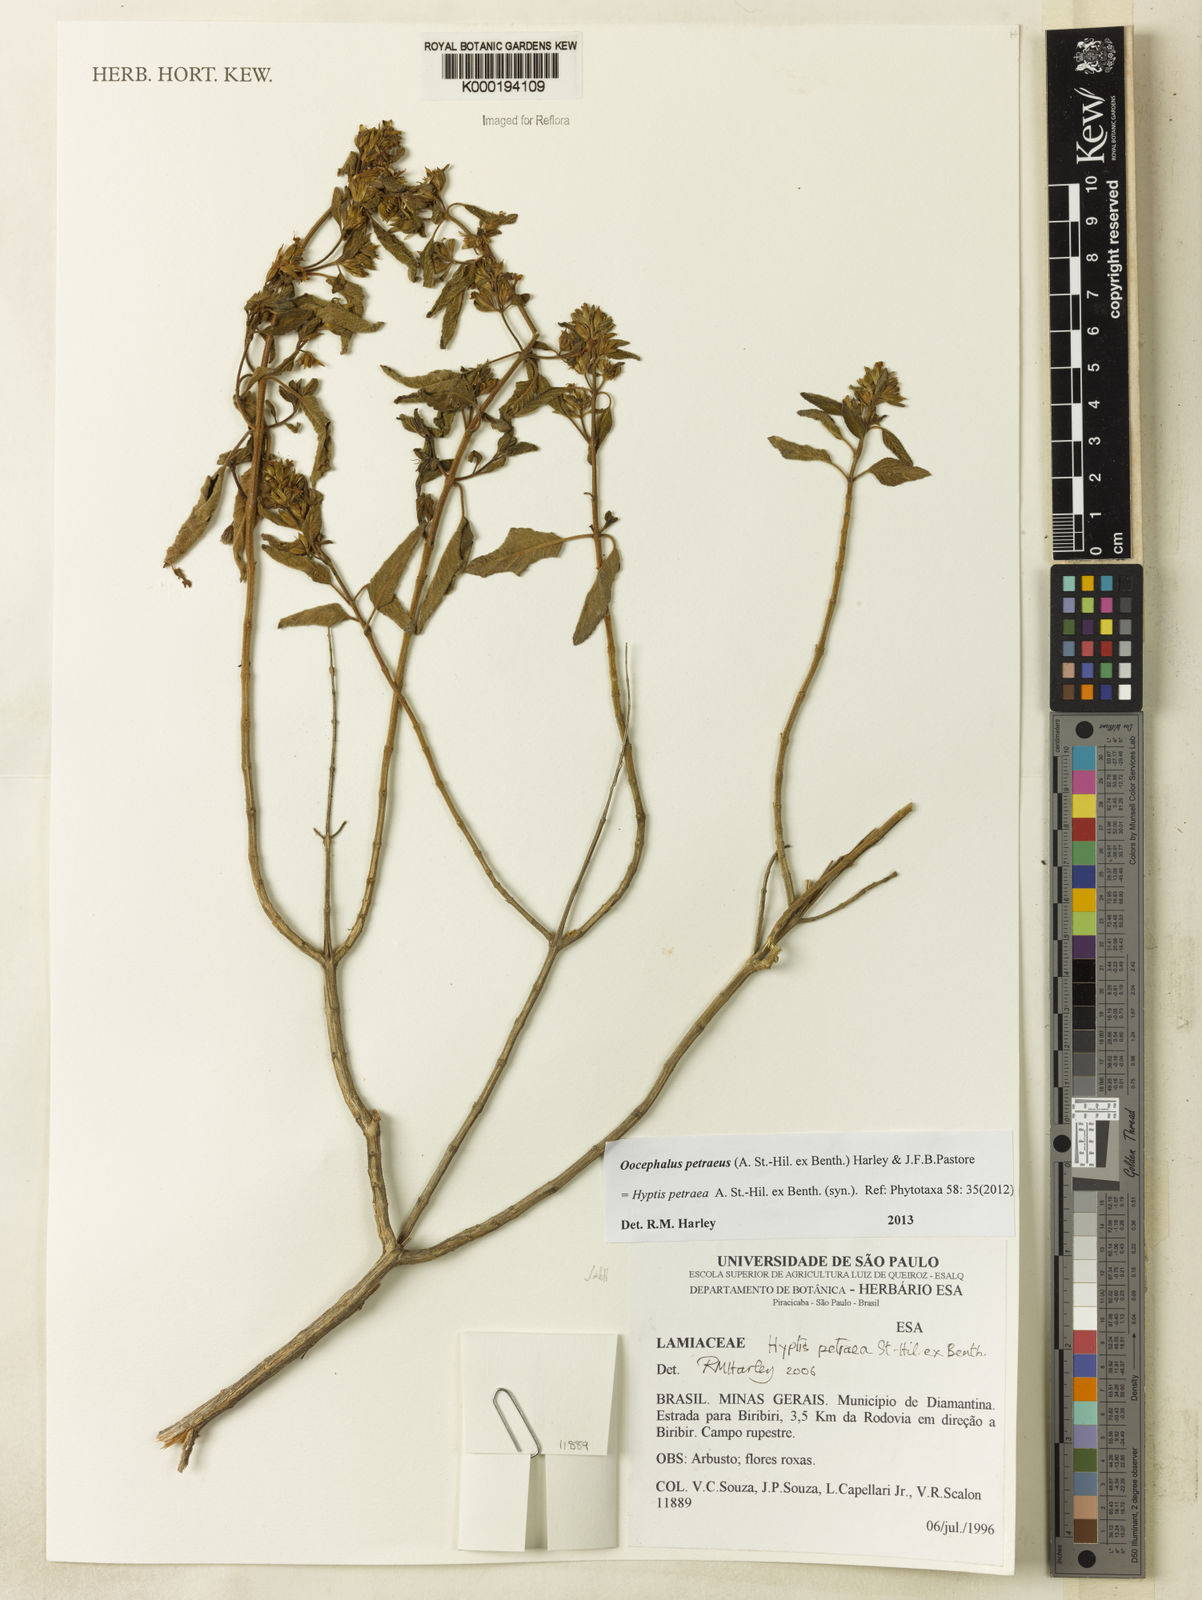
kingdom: Plantae
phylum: Tracheophyta
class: Magnoliopsida
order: Lamiales
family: Lamiaceae
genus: Oocephalus
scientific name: Oocephalus petraeus
